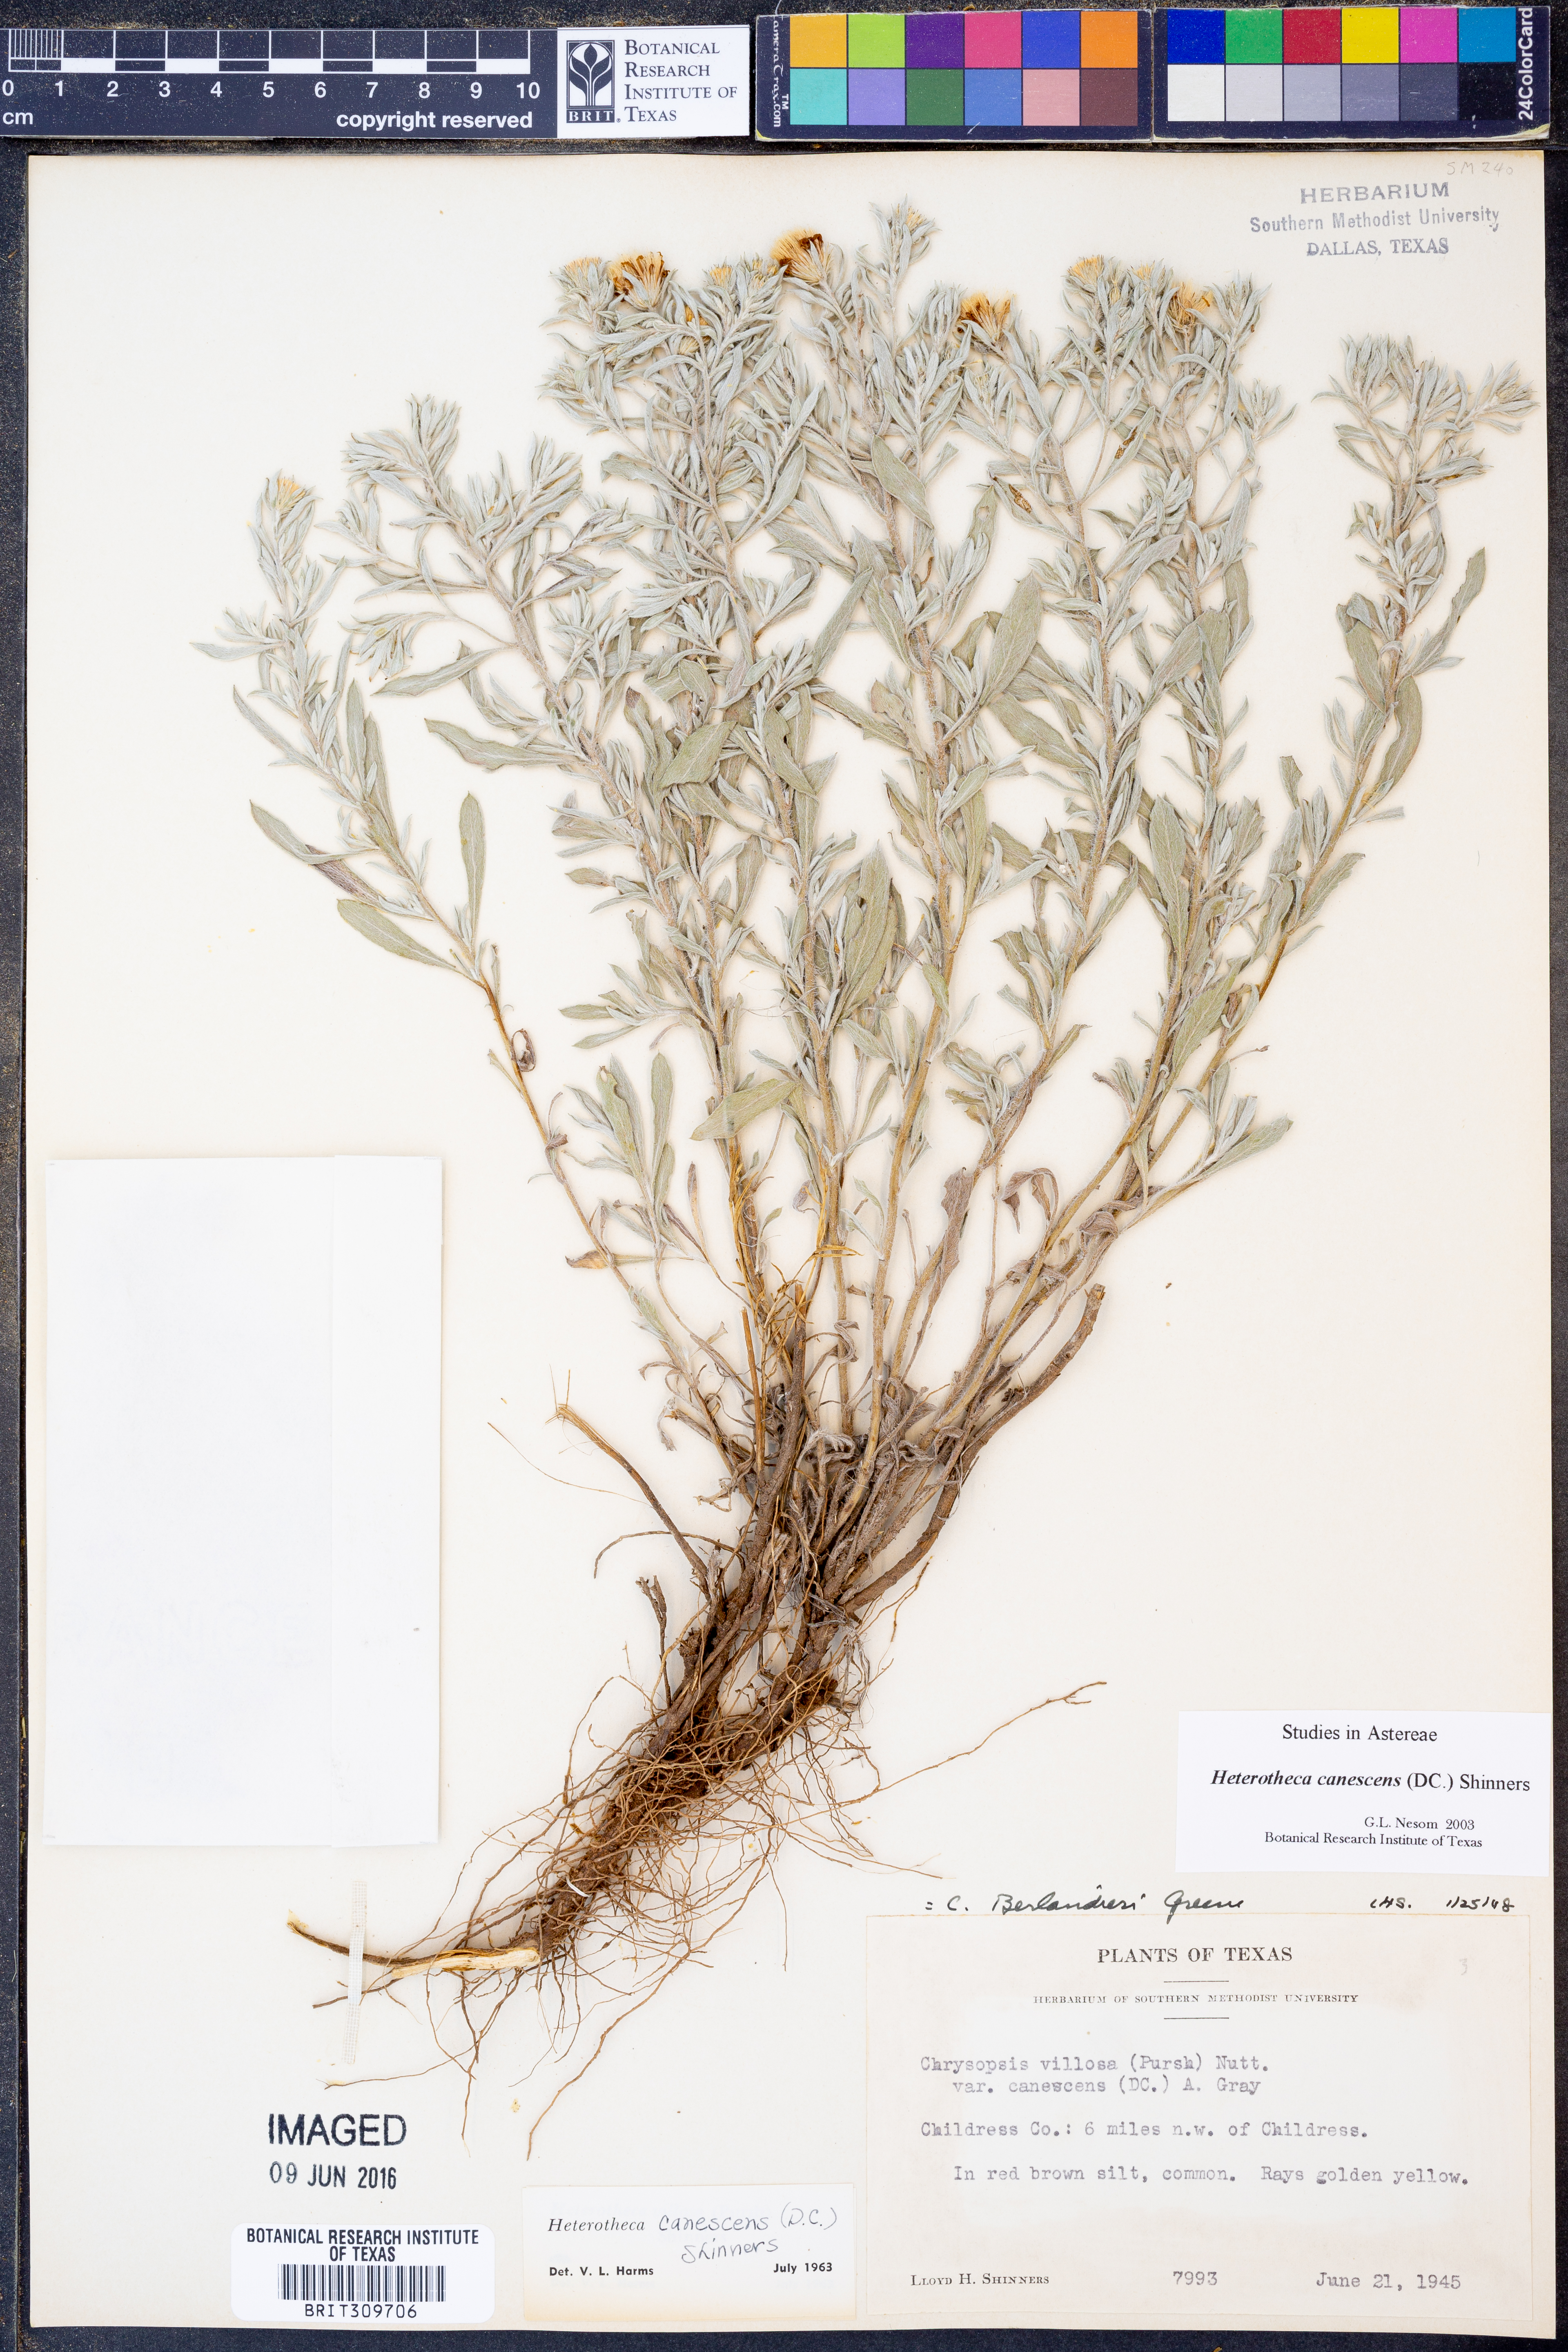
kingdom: Plantae
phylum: Tracheophyta
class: Magnoliopsida
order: Asterales
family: Asteraceae
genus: Heterotheca
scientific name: Heterotheca canescens
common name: Hoary golden-aster
